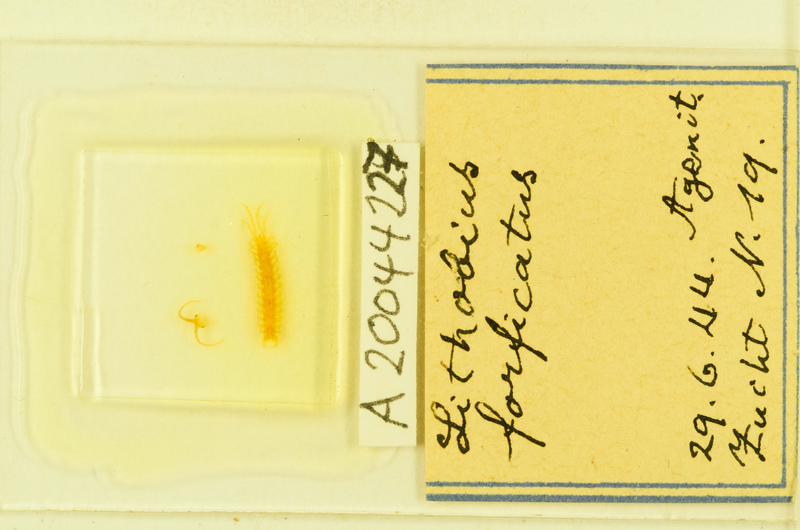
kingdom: Animalia
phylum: Arthropoda
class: Chilopoda
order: Lithobiomorpha
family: Lithobiidae
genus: Lithobius
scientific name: Lithobius forficatus
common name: Centipede
